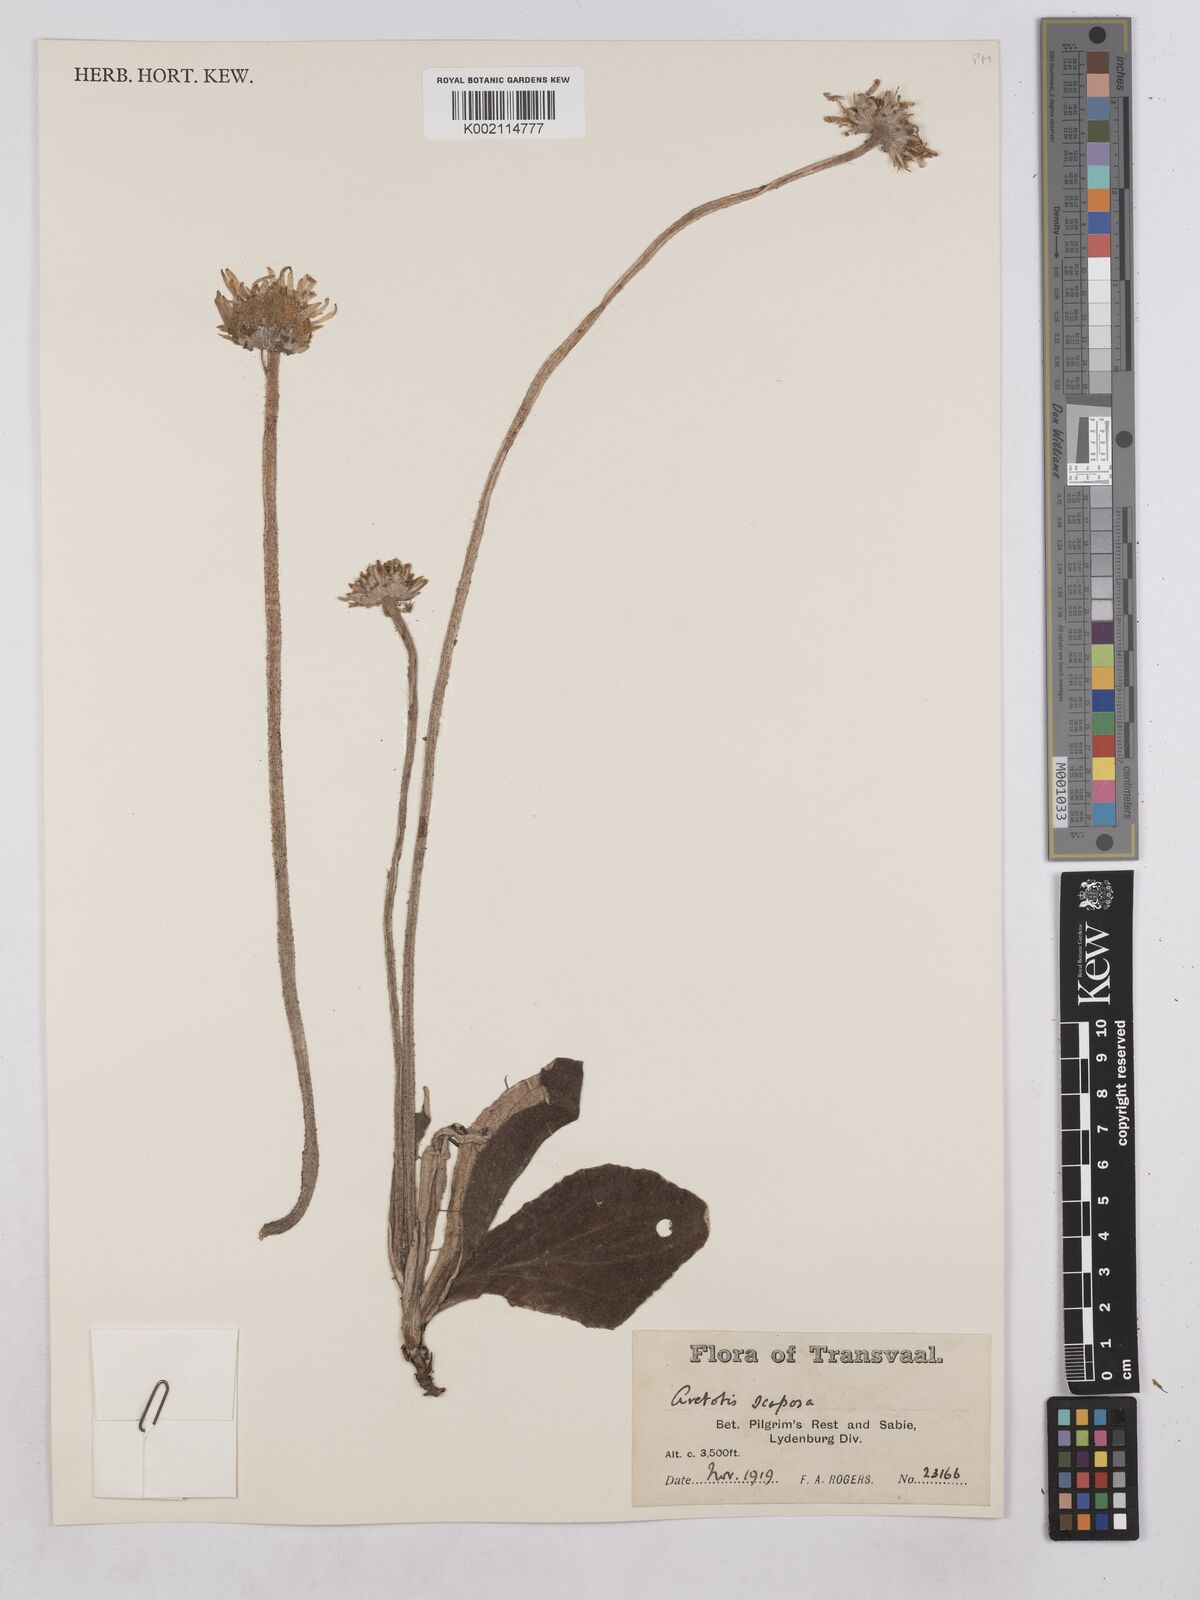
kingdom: Plantae
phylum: Tracheophyta
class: Magnoliopsida
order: Asterales
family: Asteraceae
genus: Haplocarpha
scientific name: Haplocarpha scaposa
